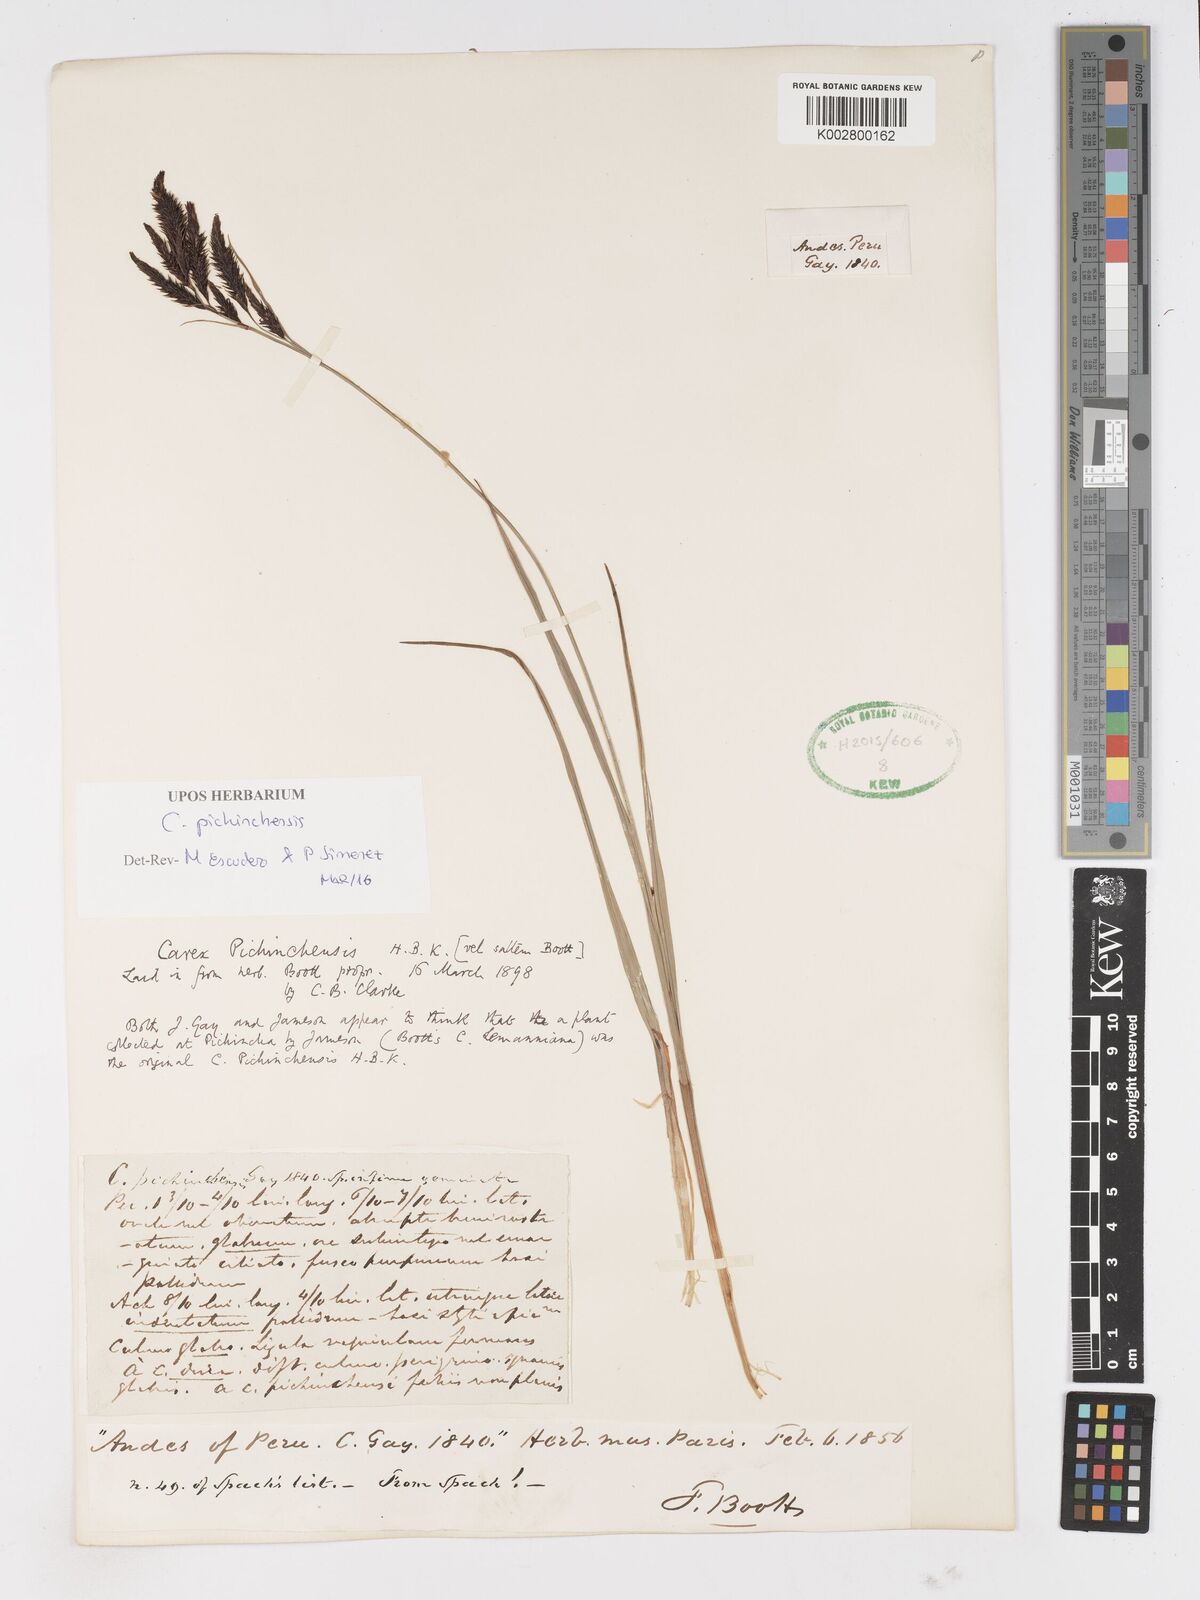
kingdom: Plantae
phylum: Tracheophyta
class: Liliopsida
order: Poales
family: Cyperaceae
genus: Carex
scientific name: Carex pichinchensis
